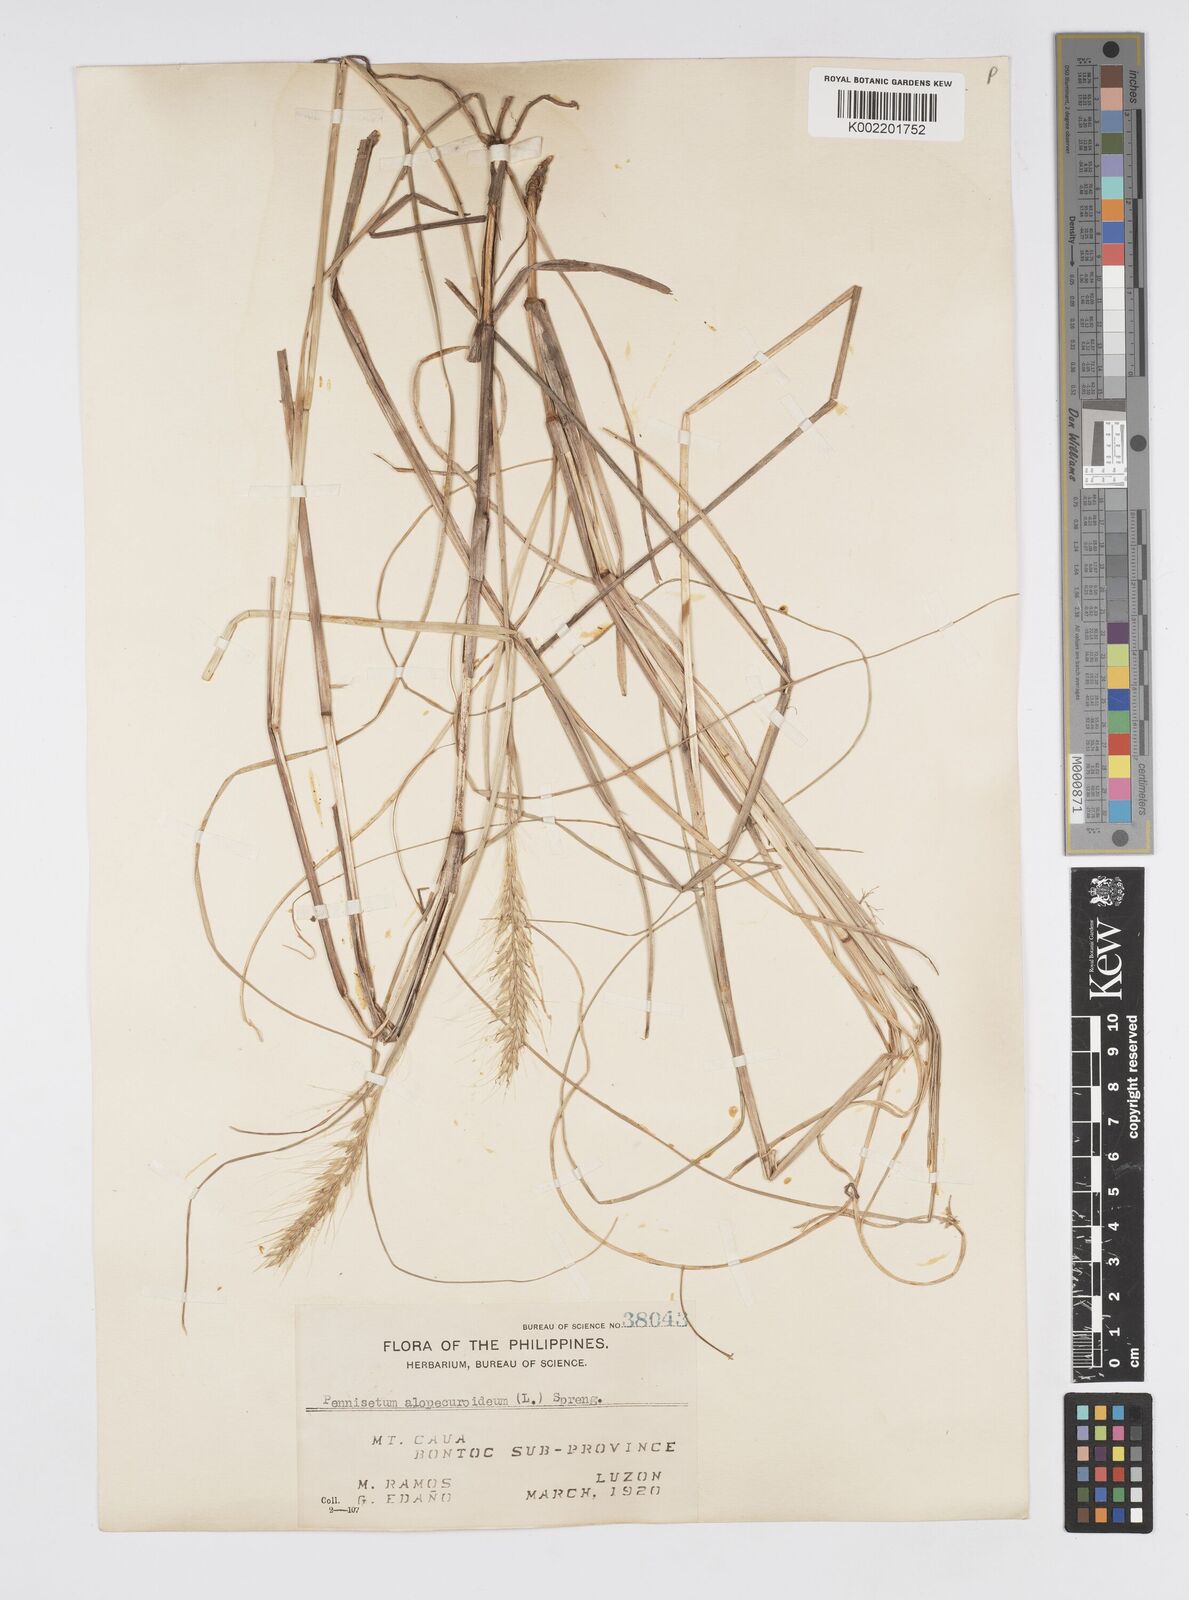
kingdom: Plantae
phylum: Tracheophyta
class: Liliopsida
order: Poales
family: Poaceae
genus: Cenchrus
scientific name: Cenchrus setosus
